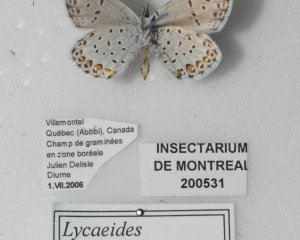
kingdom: Animalia
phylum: Arthropoda
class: Insecta
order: Lepidoptera
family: Lycaenidae
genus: Lycaeides
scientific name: Lycaeides idas
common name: Northern Blue
